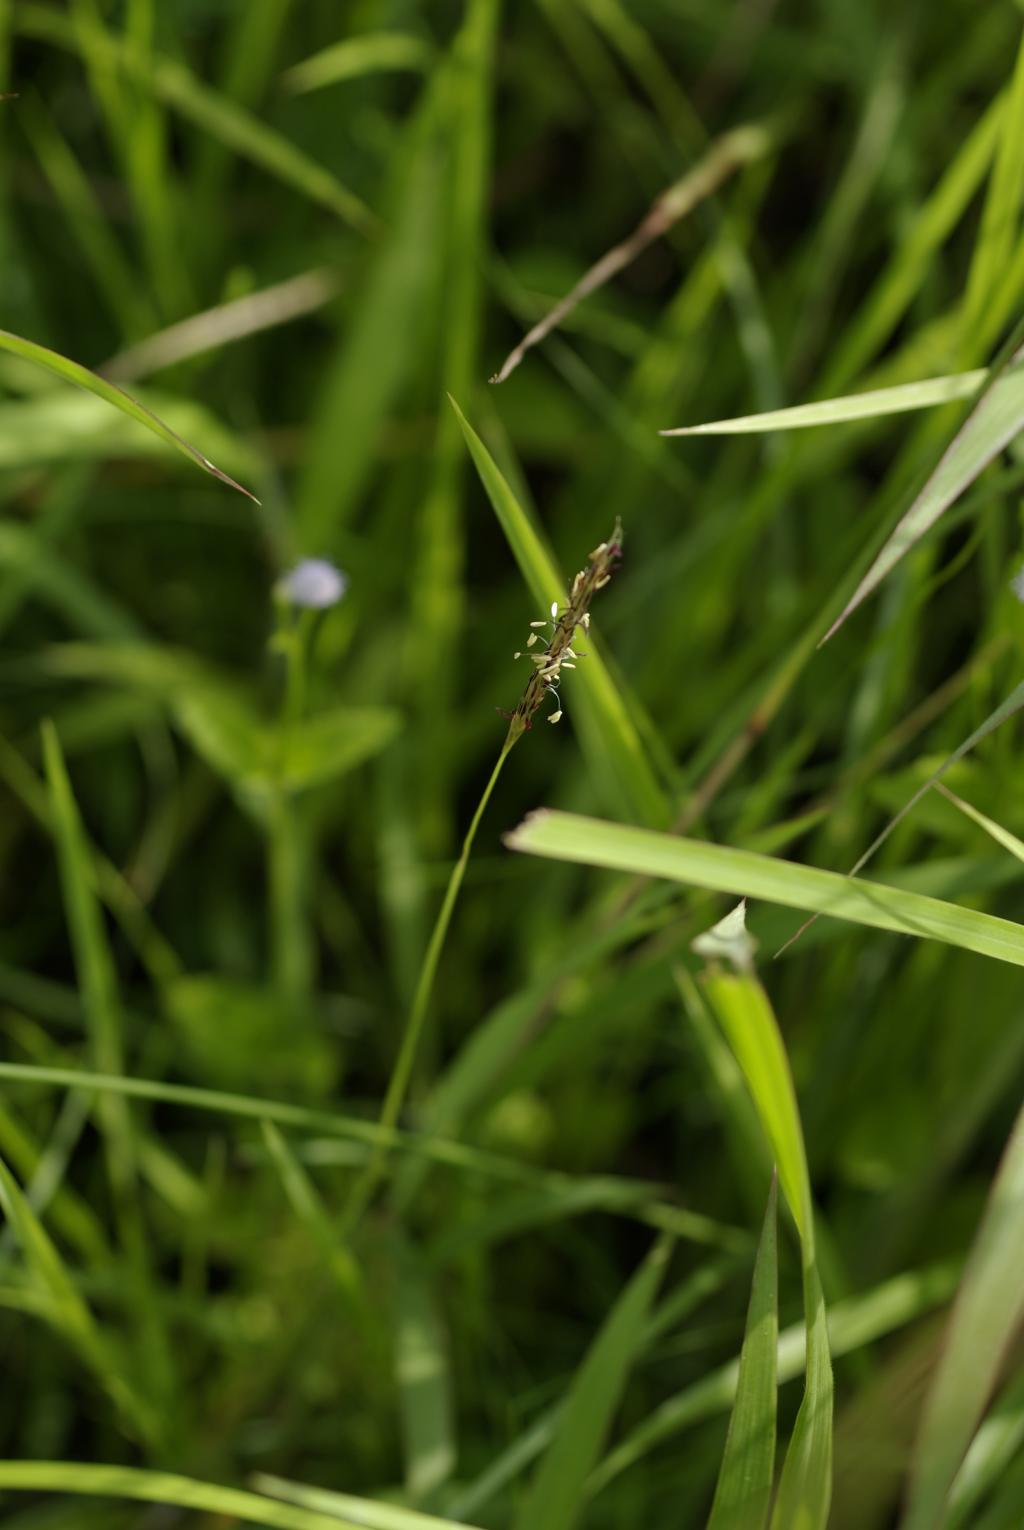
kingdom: Plantae
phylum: Tracheophyta
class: Liliopsida
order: Poales
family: Poaceae
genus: Imperata
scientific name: Imperata cylindrica
